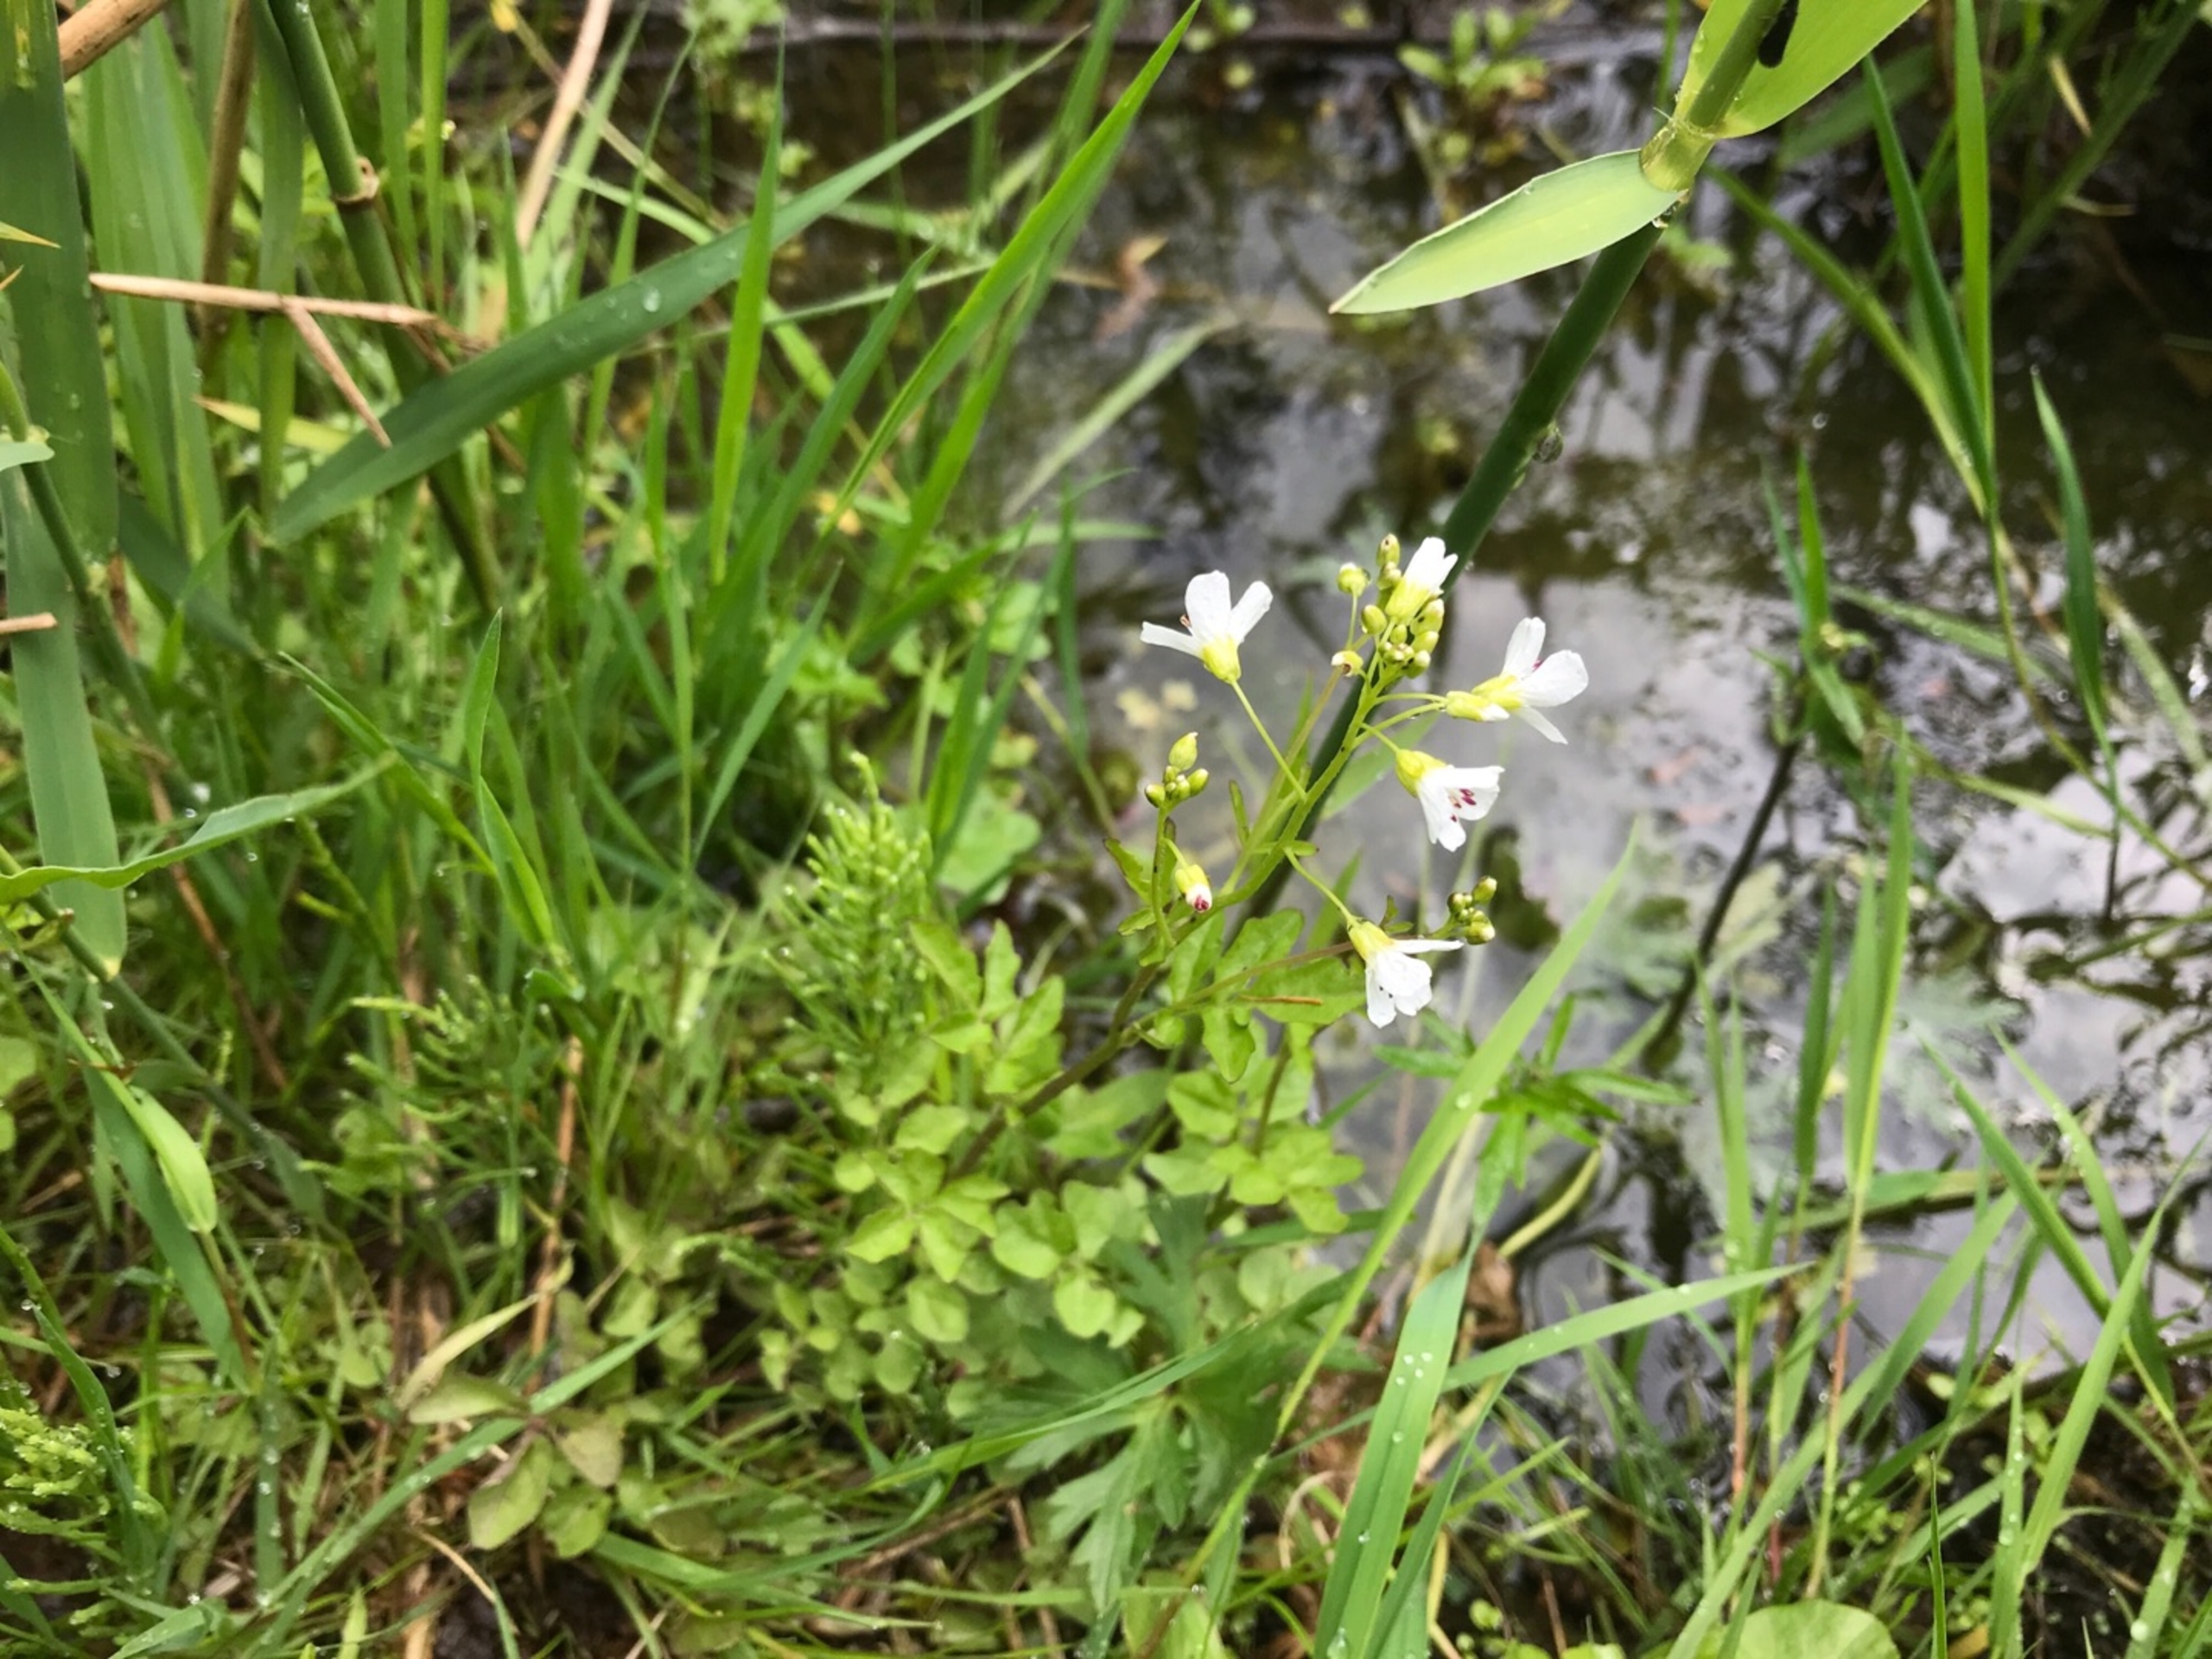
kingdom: Plantae
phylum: Tracheophyta
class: Magnoliopsida
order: Brassicales
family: Brassicaceae
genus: Cardamine
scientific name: Cardamine amara
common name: Vandkarse
